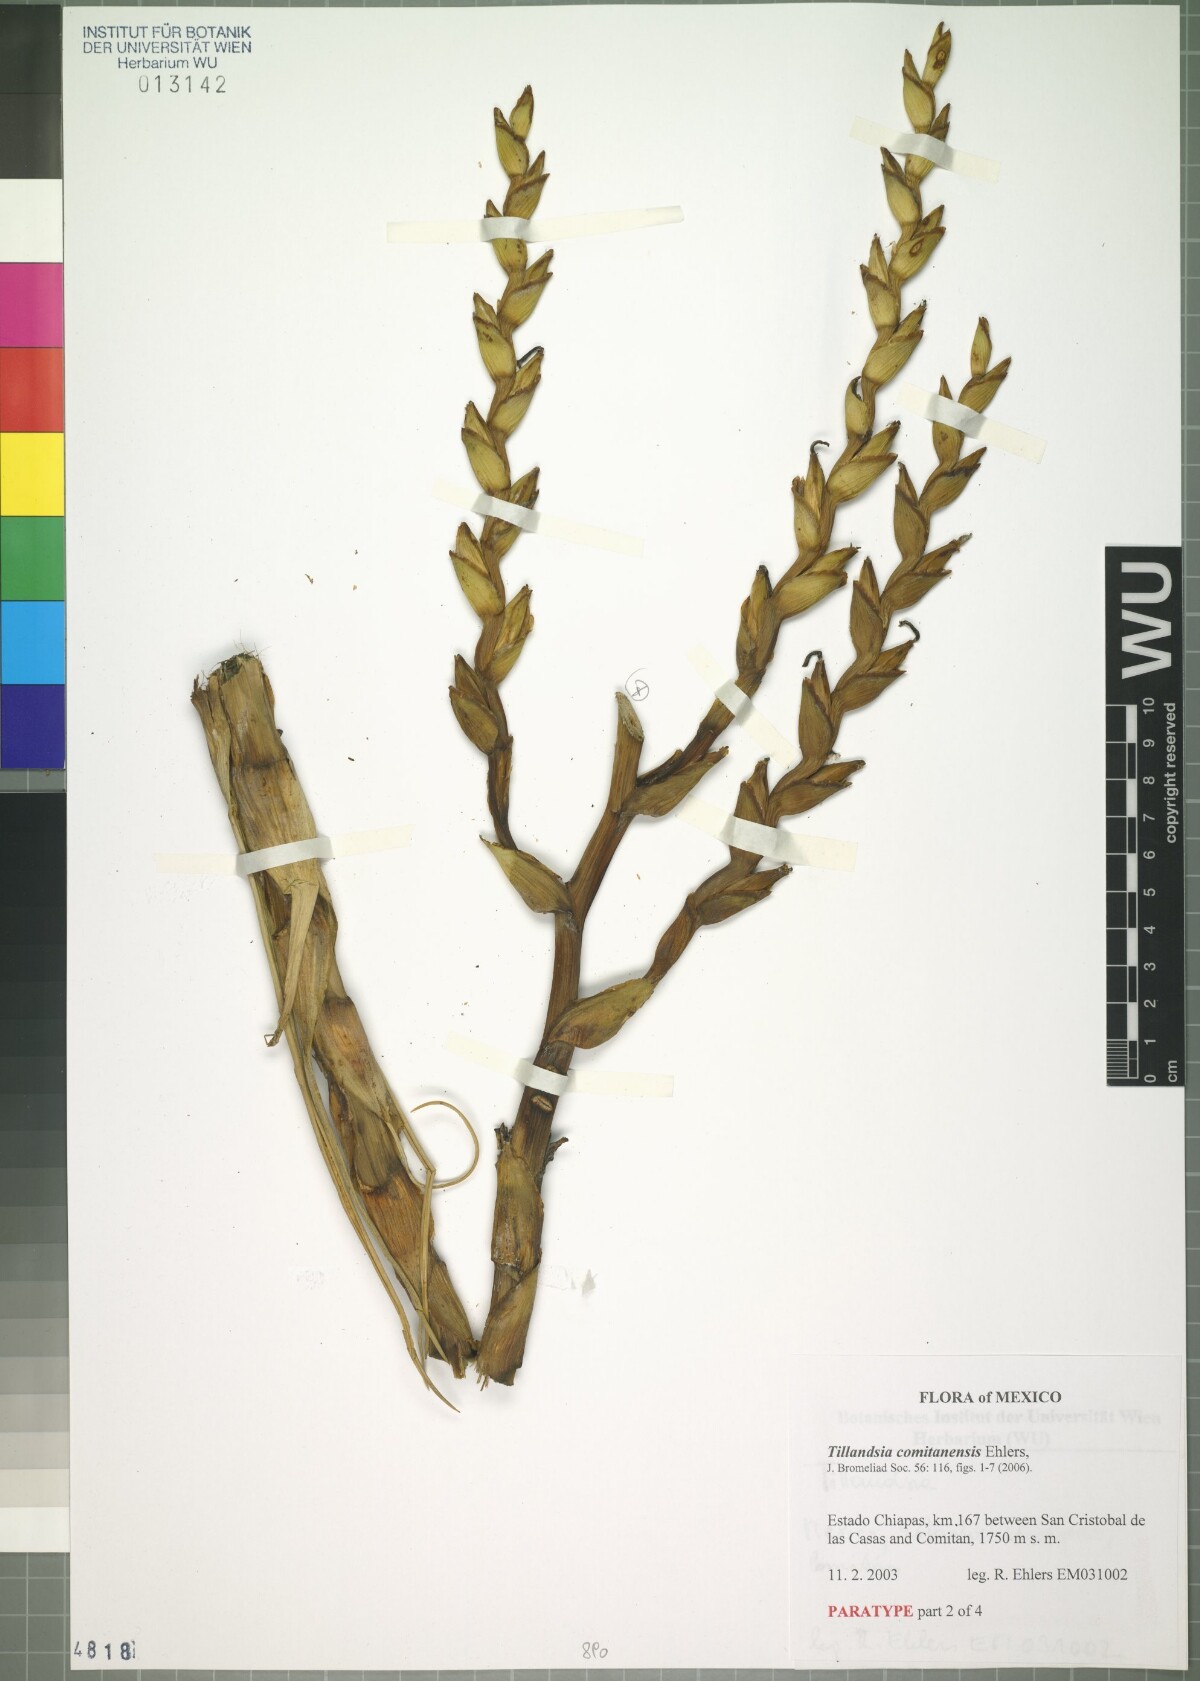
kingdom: Plantae
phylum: Tracheophyta
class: Liliopsida
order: Poales
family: Bromeliaceae
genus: Tillandsia
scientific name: Tillandsia comitanensis
